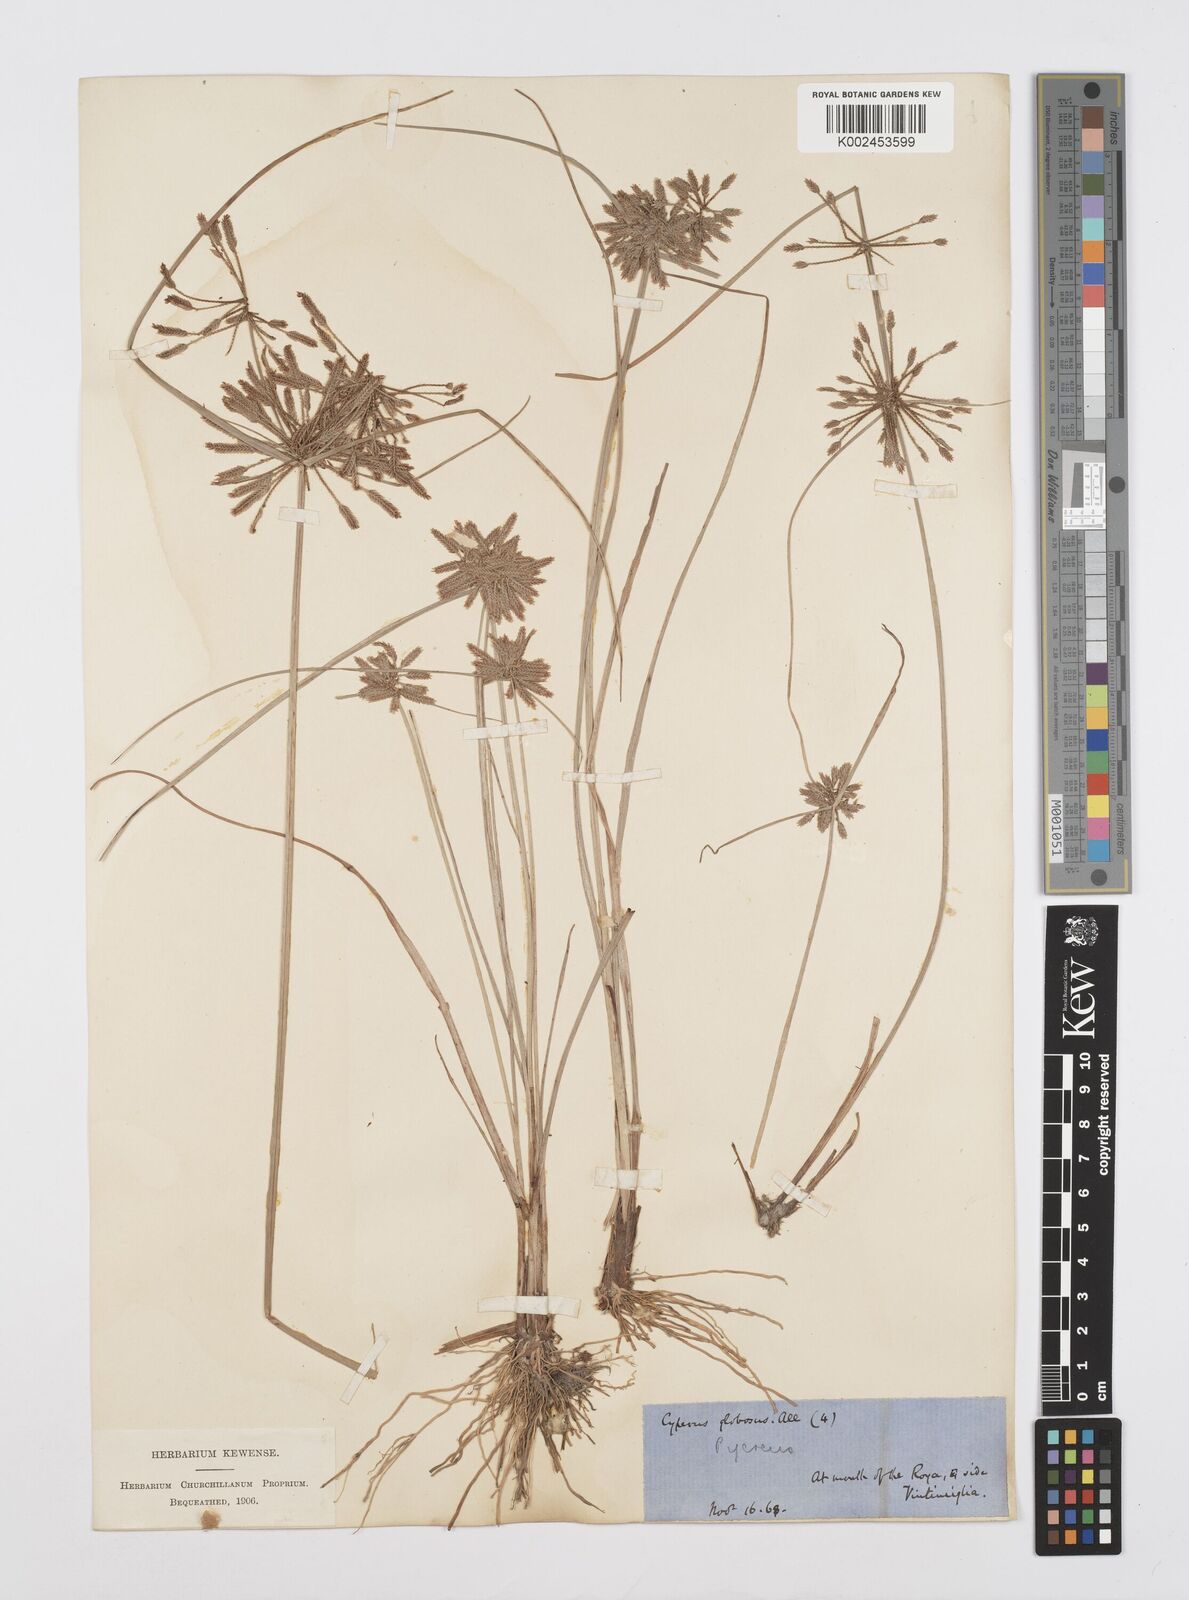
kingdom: Plantae
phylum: Tracheophyta
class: Liliopsida
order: Poales
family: Cyperaceae
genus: Cyperus
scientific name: Cyperus flavidus
